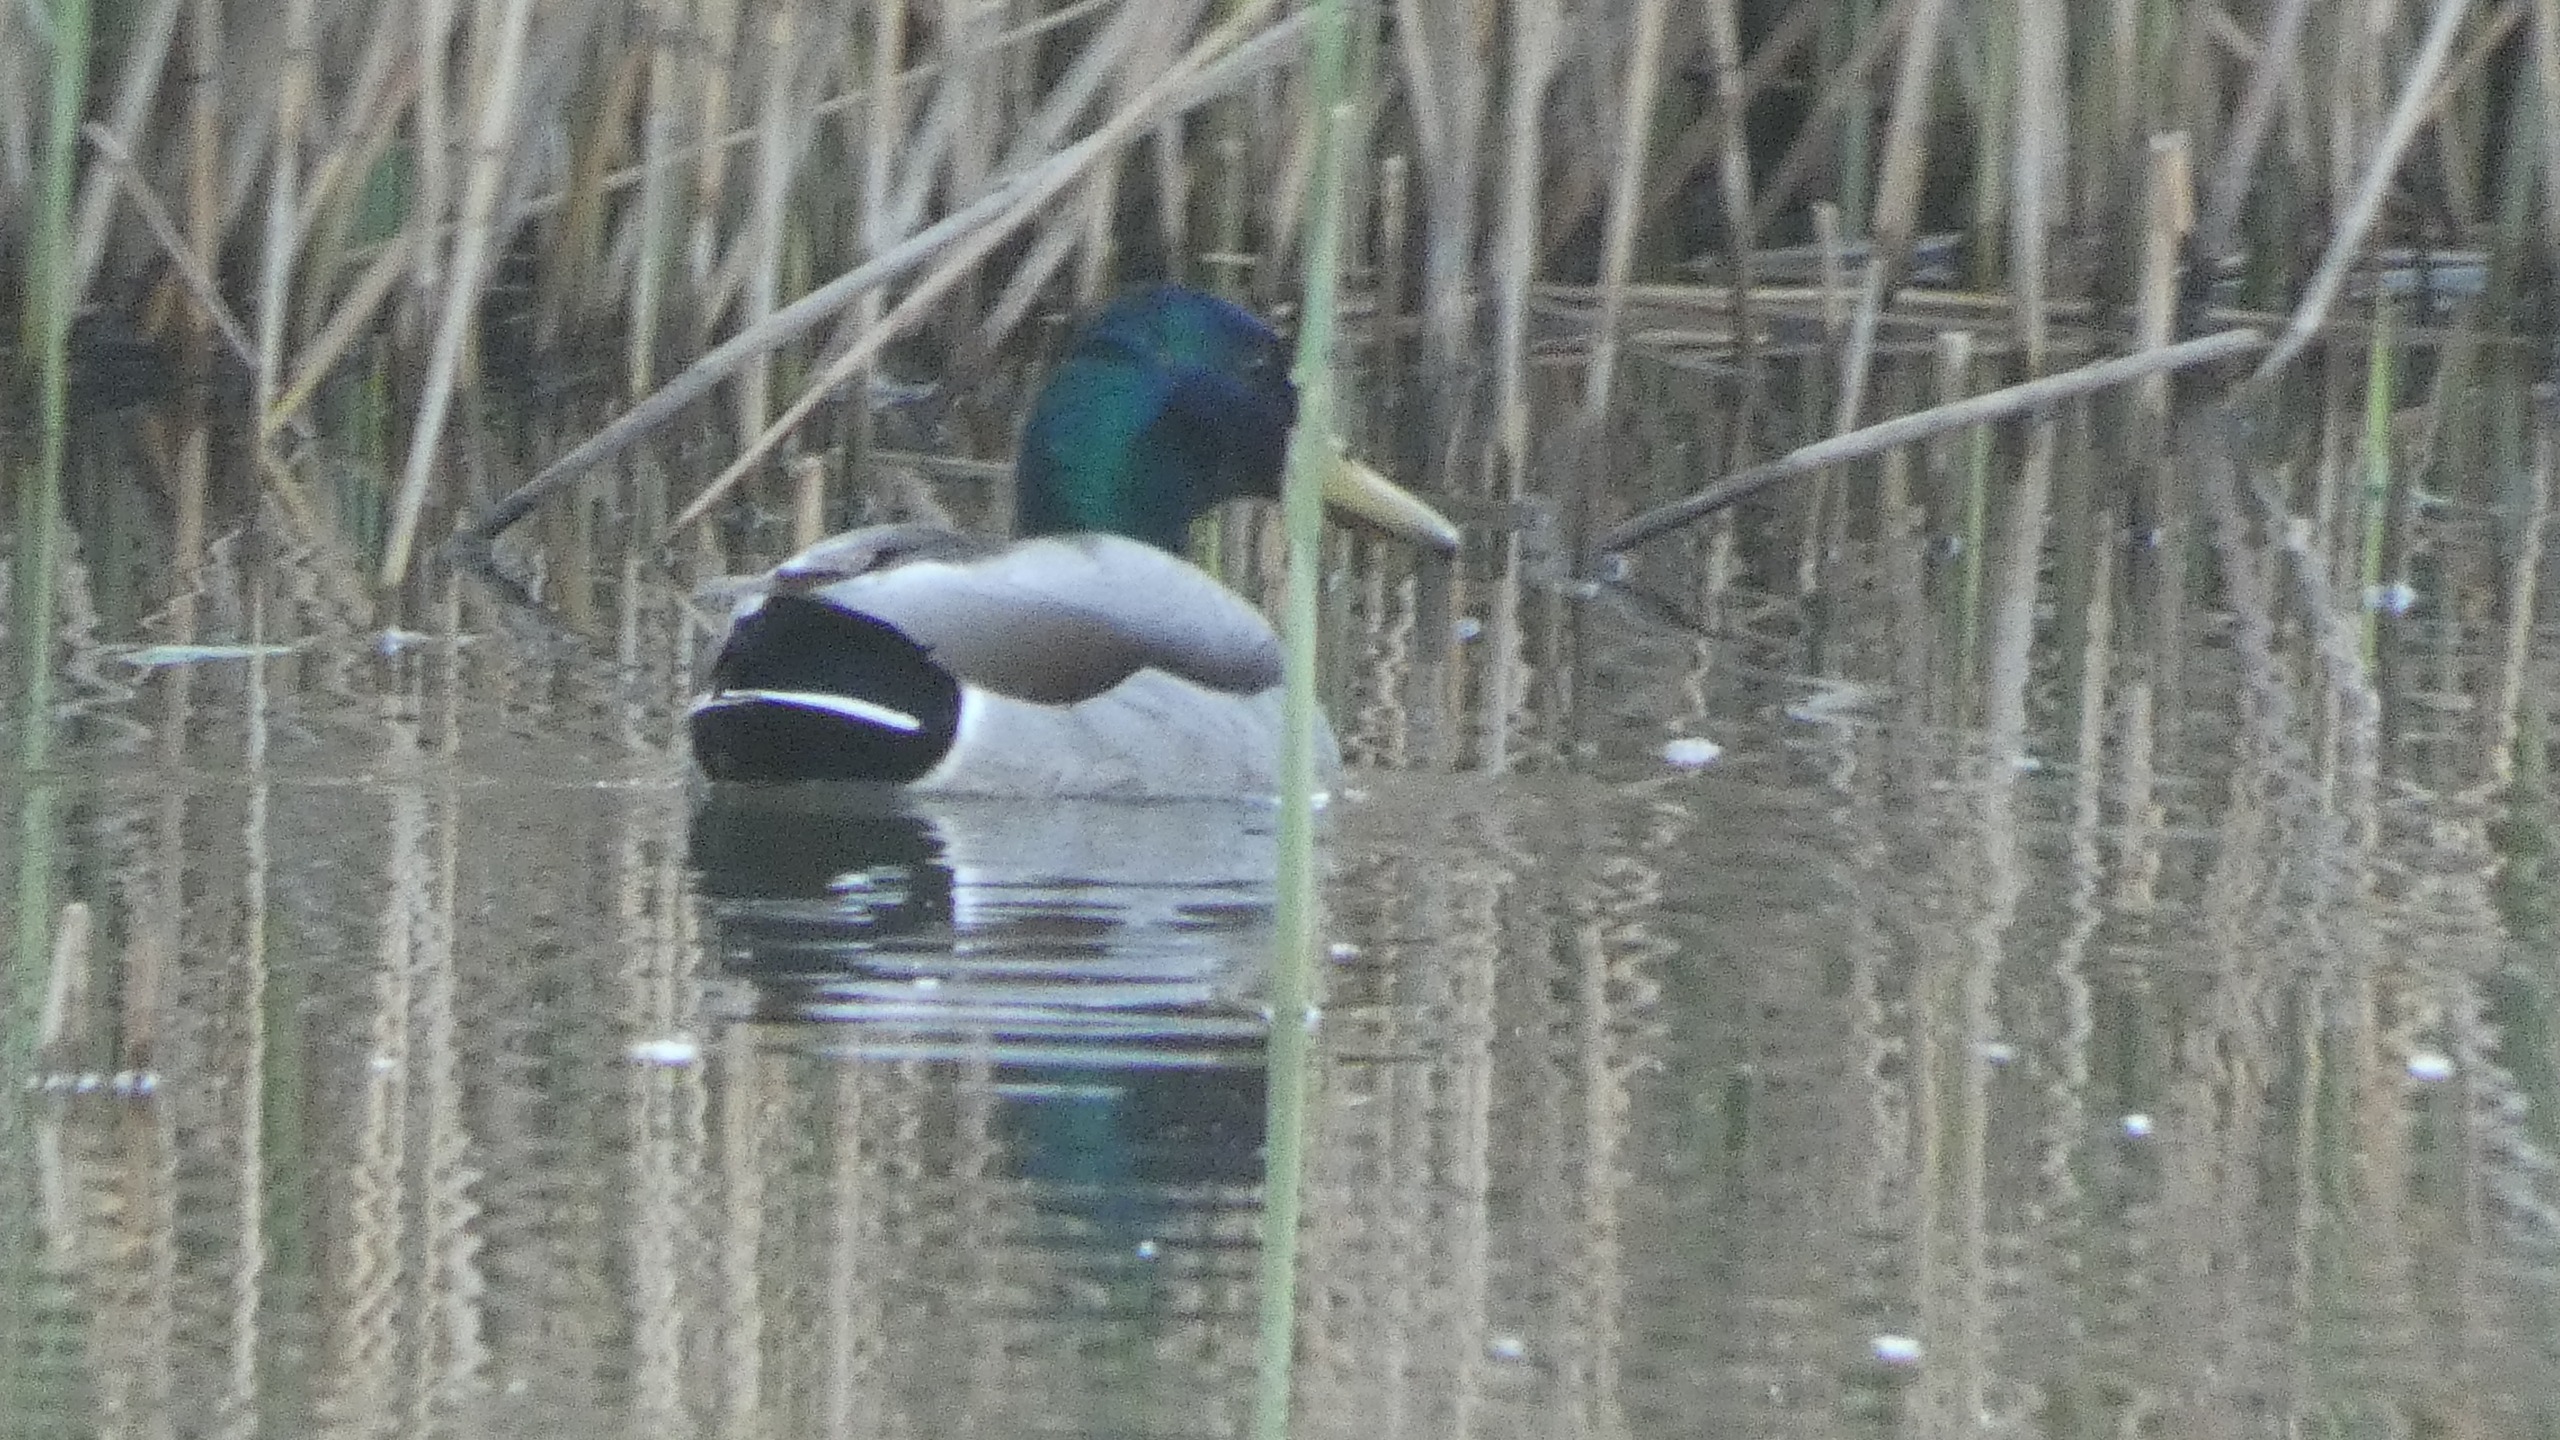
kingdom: Animalia
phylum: Chordata
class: Aves
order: Anseriformes
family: Anatidae
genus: Anas
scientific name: Anas platyrhynchos
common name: Gråand
